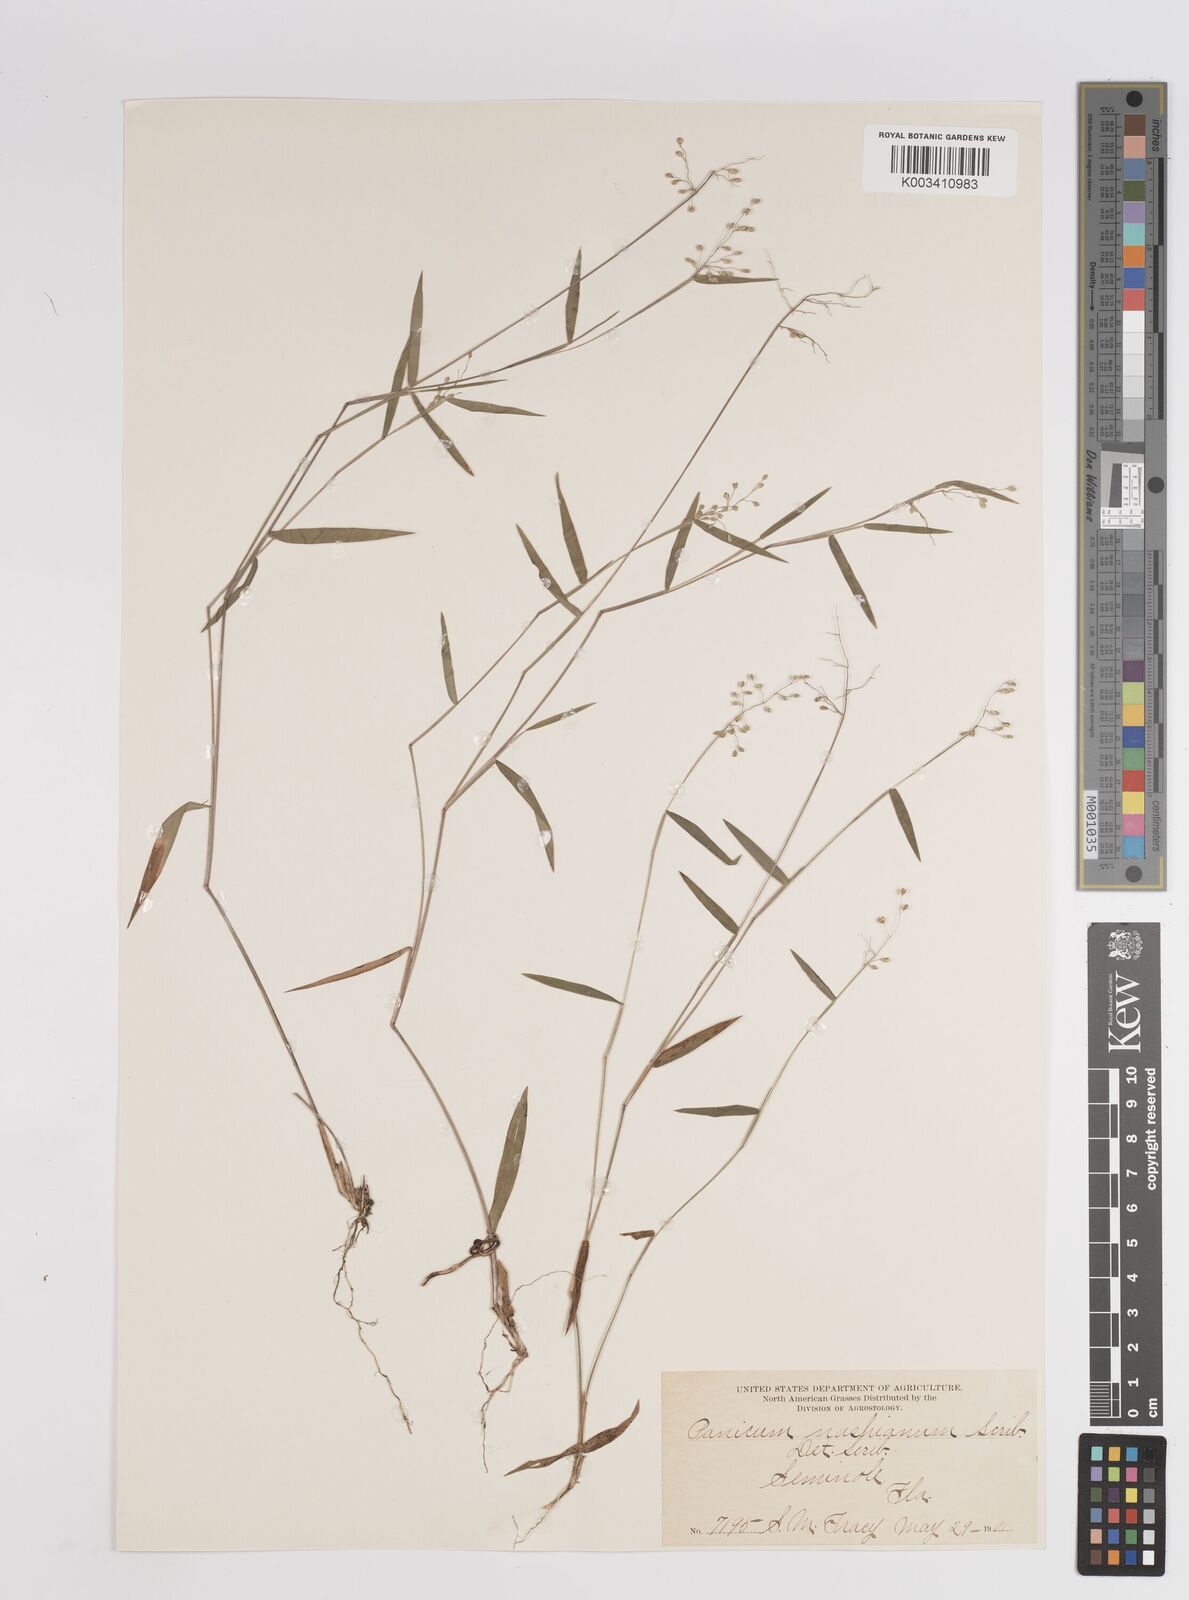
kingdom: Plantae
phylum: Tracheophyta
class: Liliopsida
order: Poales
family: Poaceae
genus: Dichanthelium
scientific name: Dichanthelium portoricense
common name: American panicgrass
